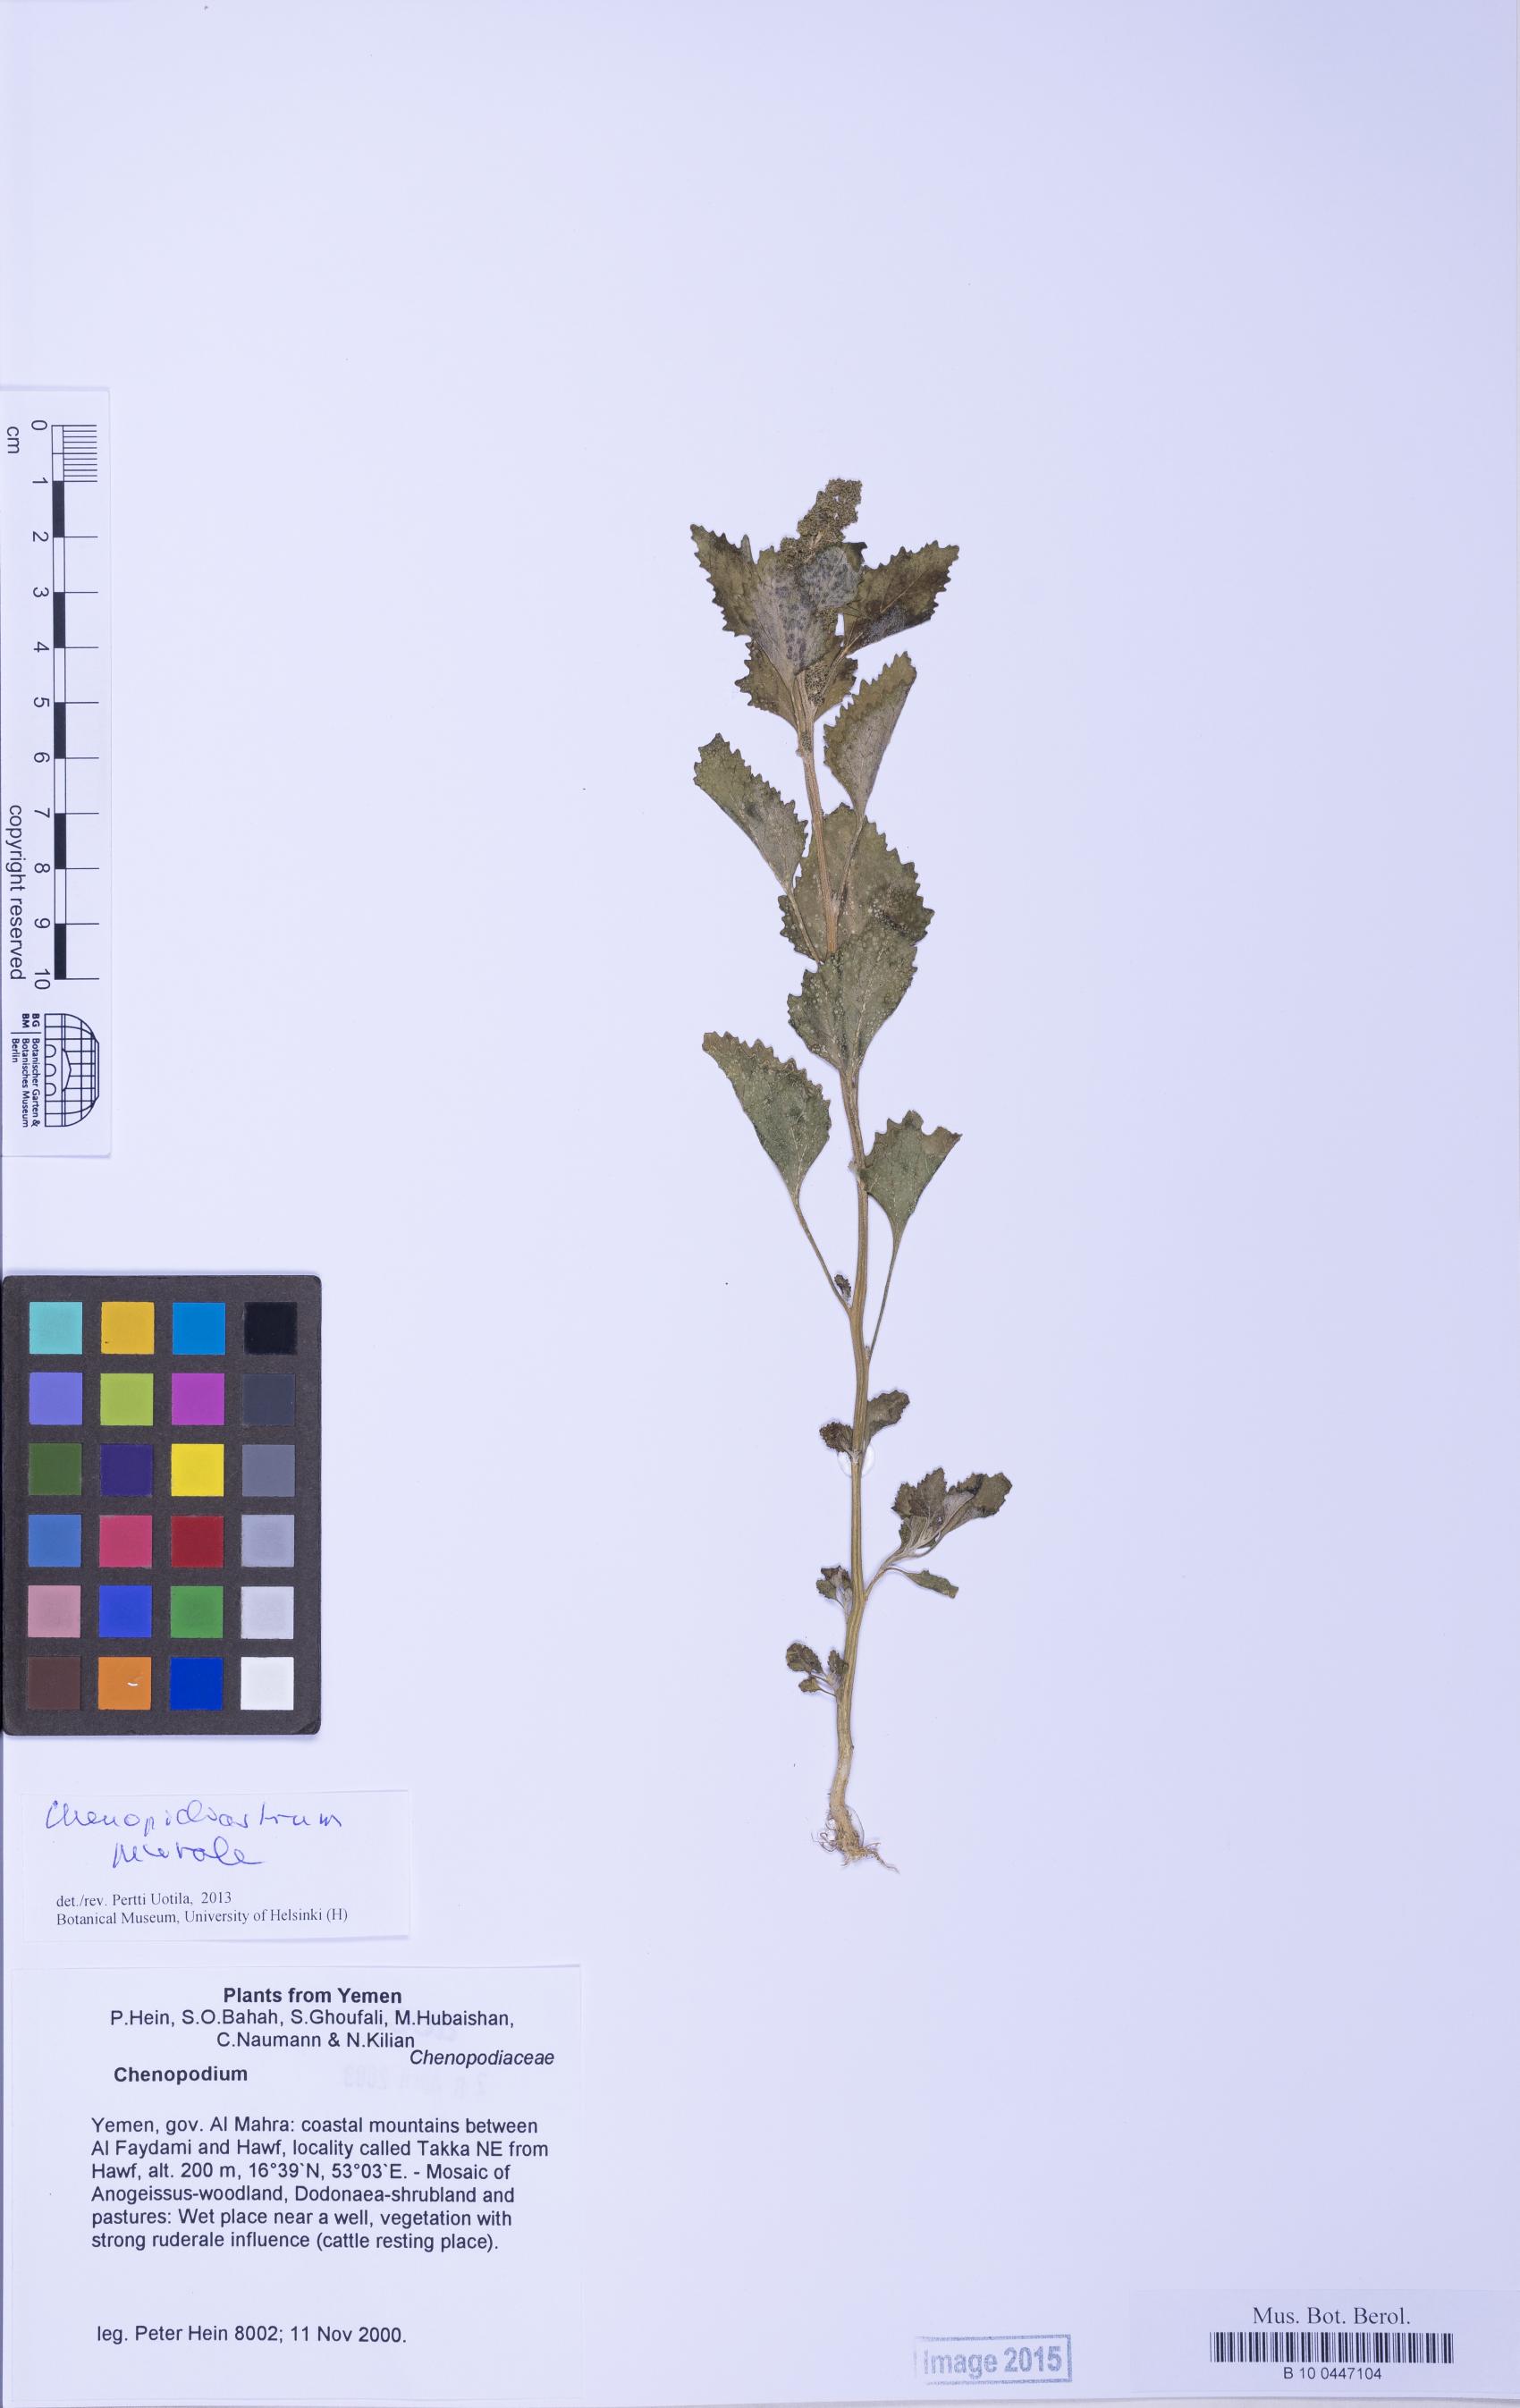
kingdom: Plantae
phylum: Tracheophyta
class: Magnoliopsida
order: Caryophyllales
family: Amaranthaceae
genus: Chenopodium
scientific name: Chenopodium
